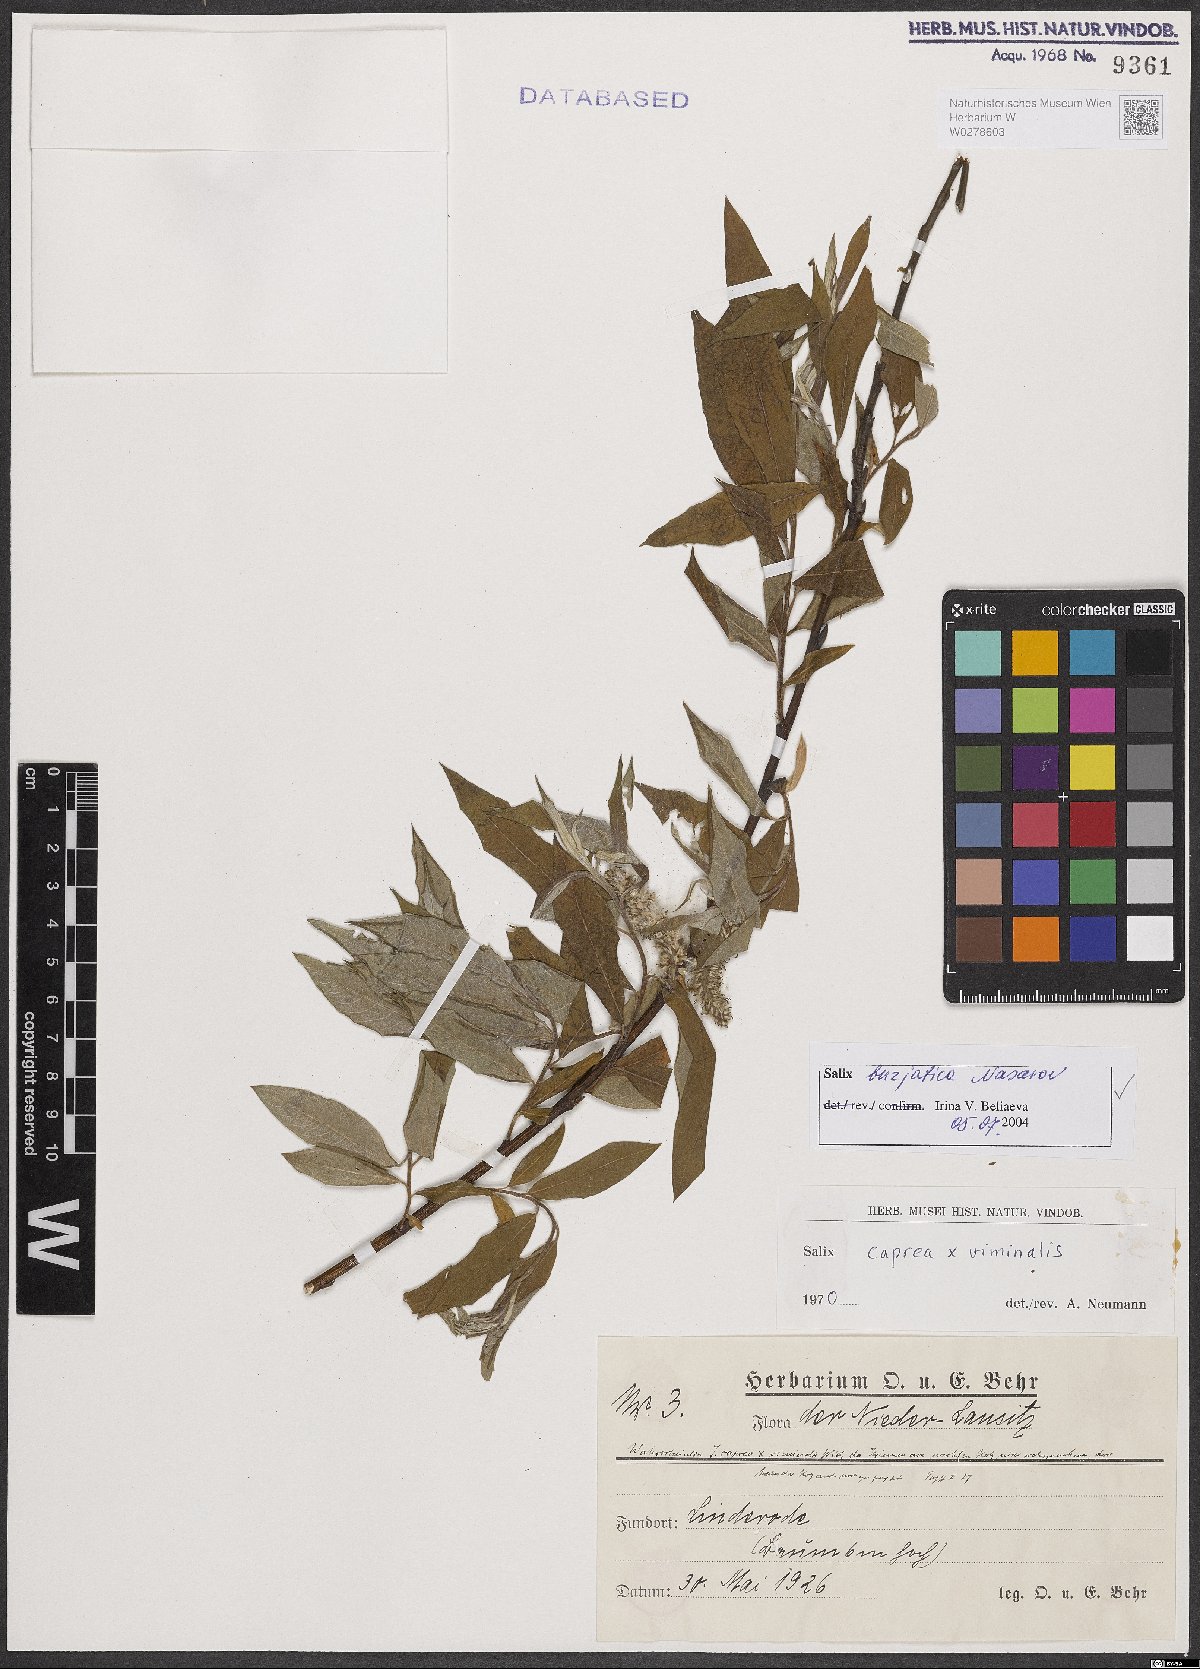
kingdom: Plantae
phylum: Tracheophyta
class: Magnoliopsida
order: Malpighiales
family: Salicaceae
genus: Salix
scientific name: Salix gmelinii
